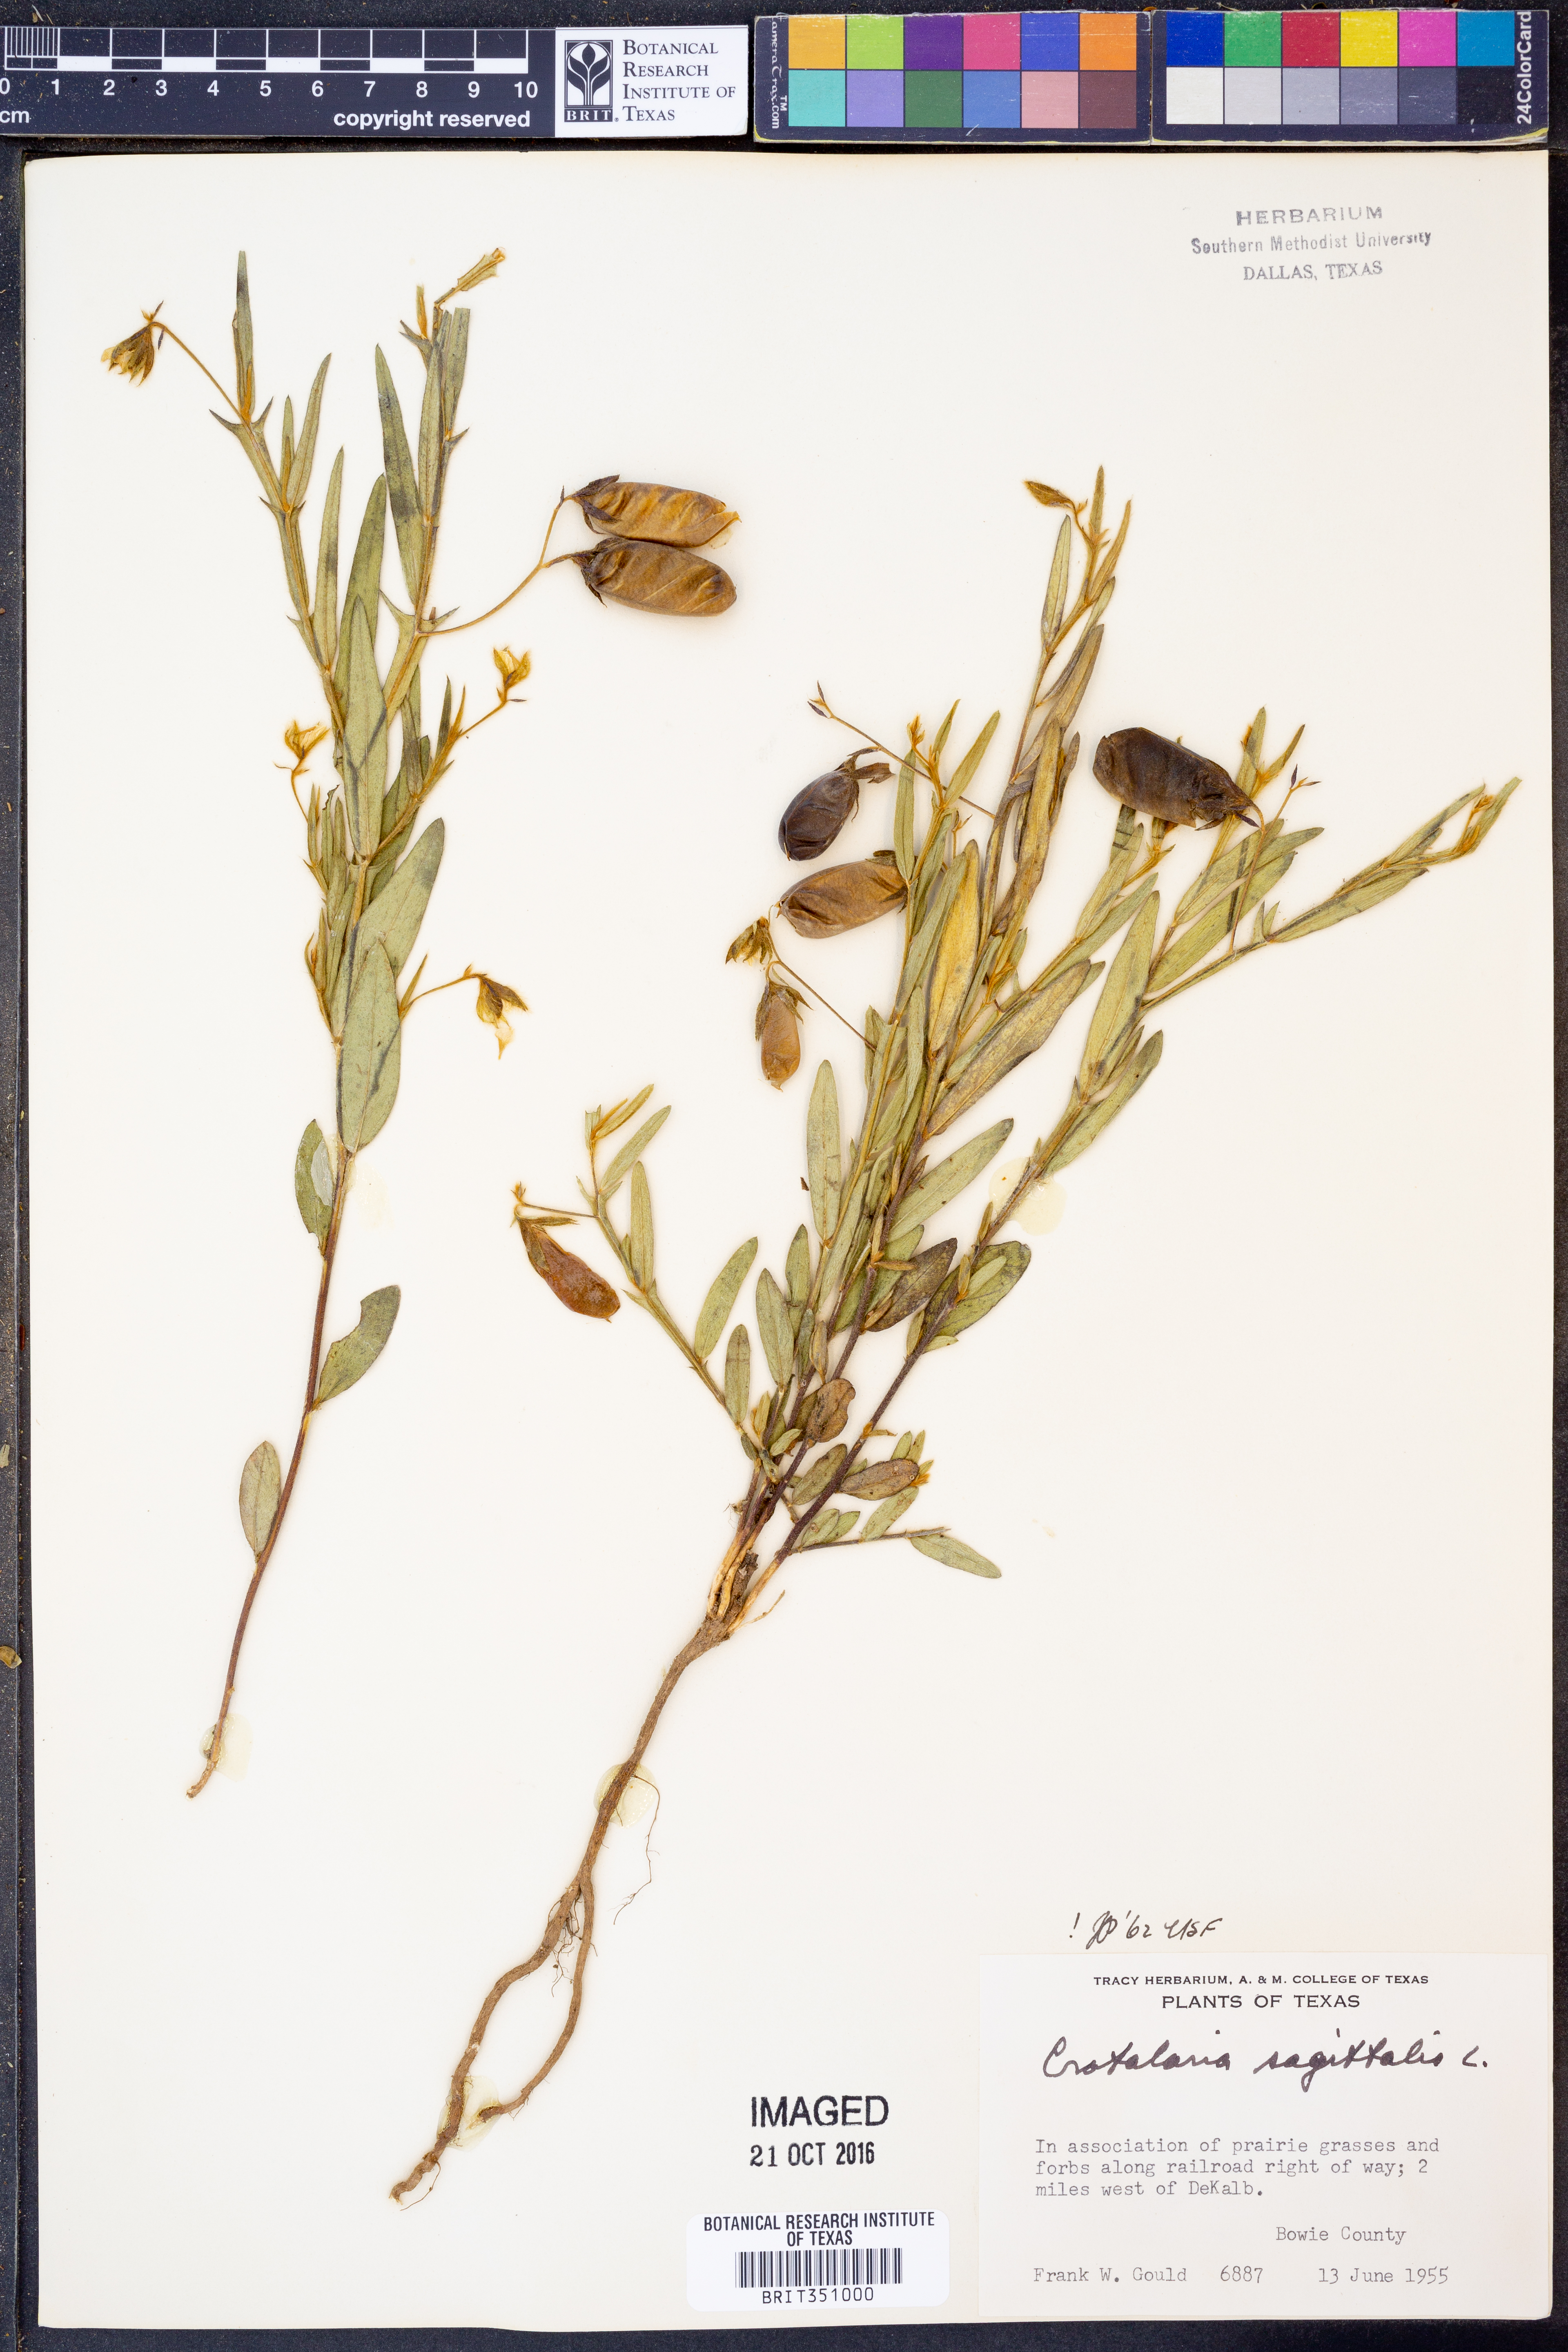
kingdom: Plantae
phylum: Tracheophyta
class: Magnoliopsida
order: Fabales
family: Fabaceae
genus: Crotalaria
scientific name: Crotalaria sagittalis
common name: Arrowhead rattlebox
